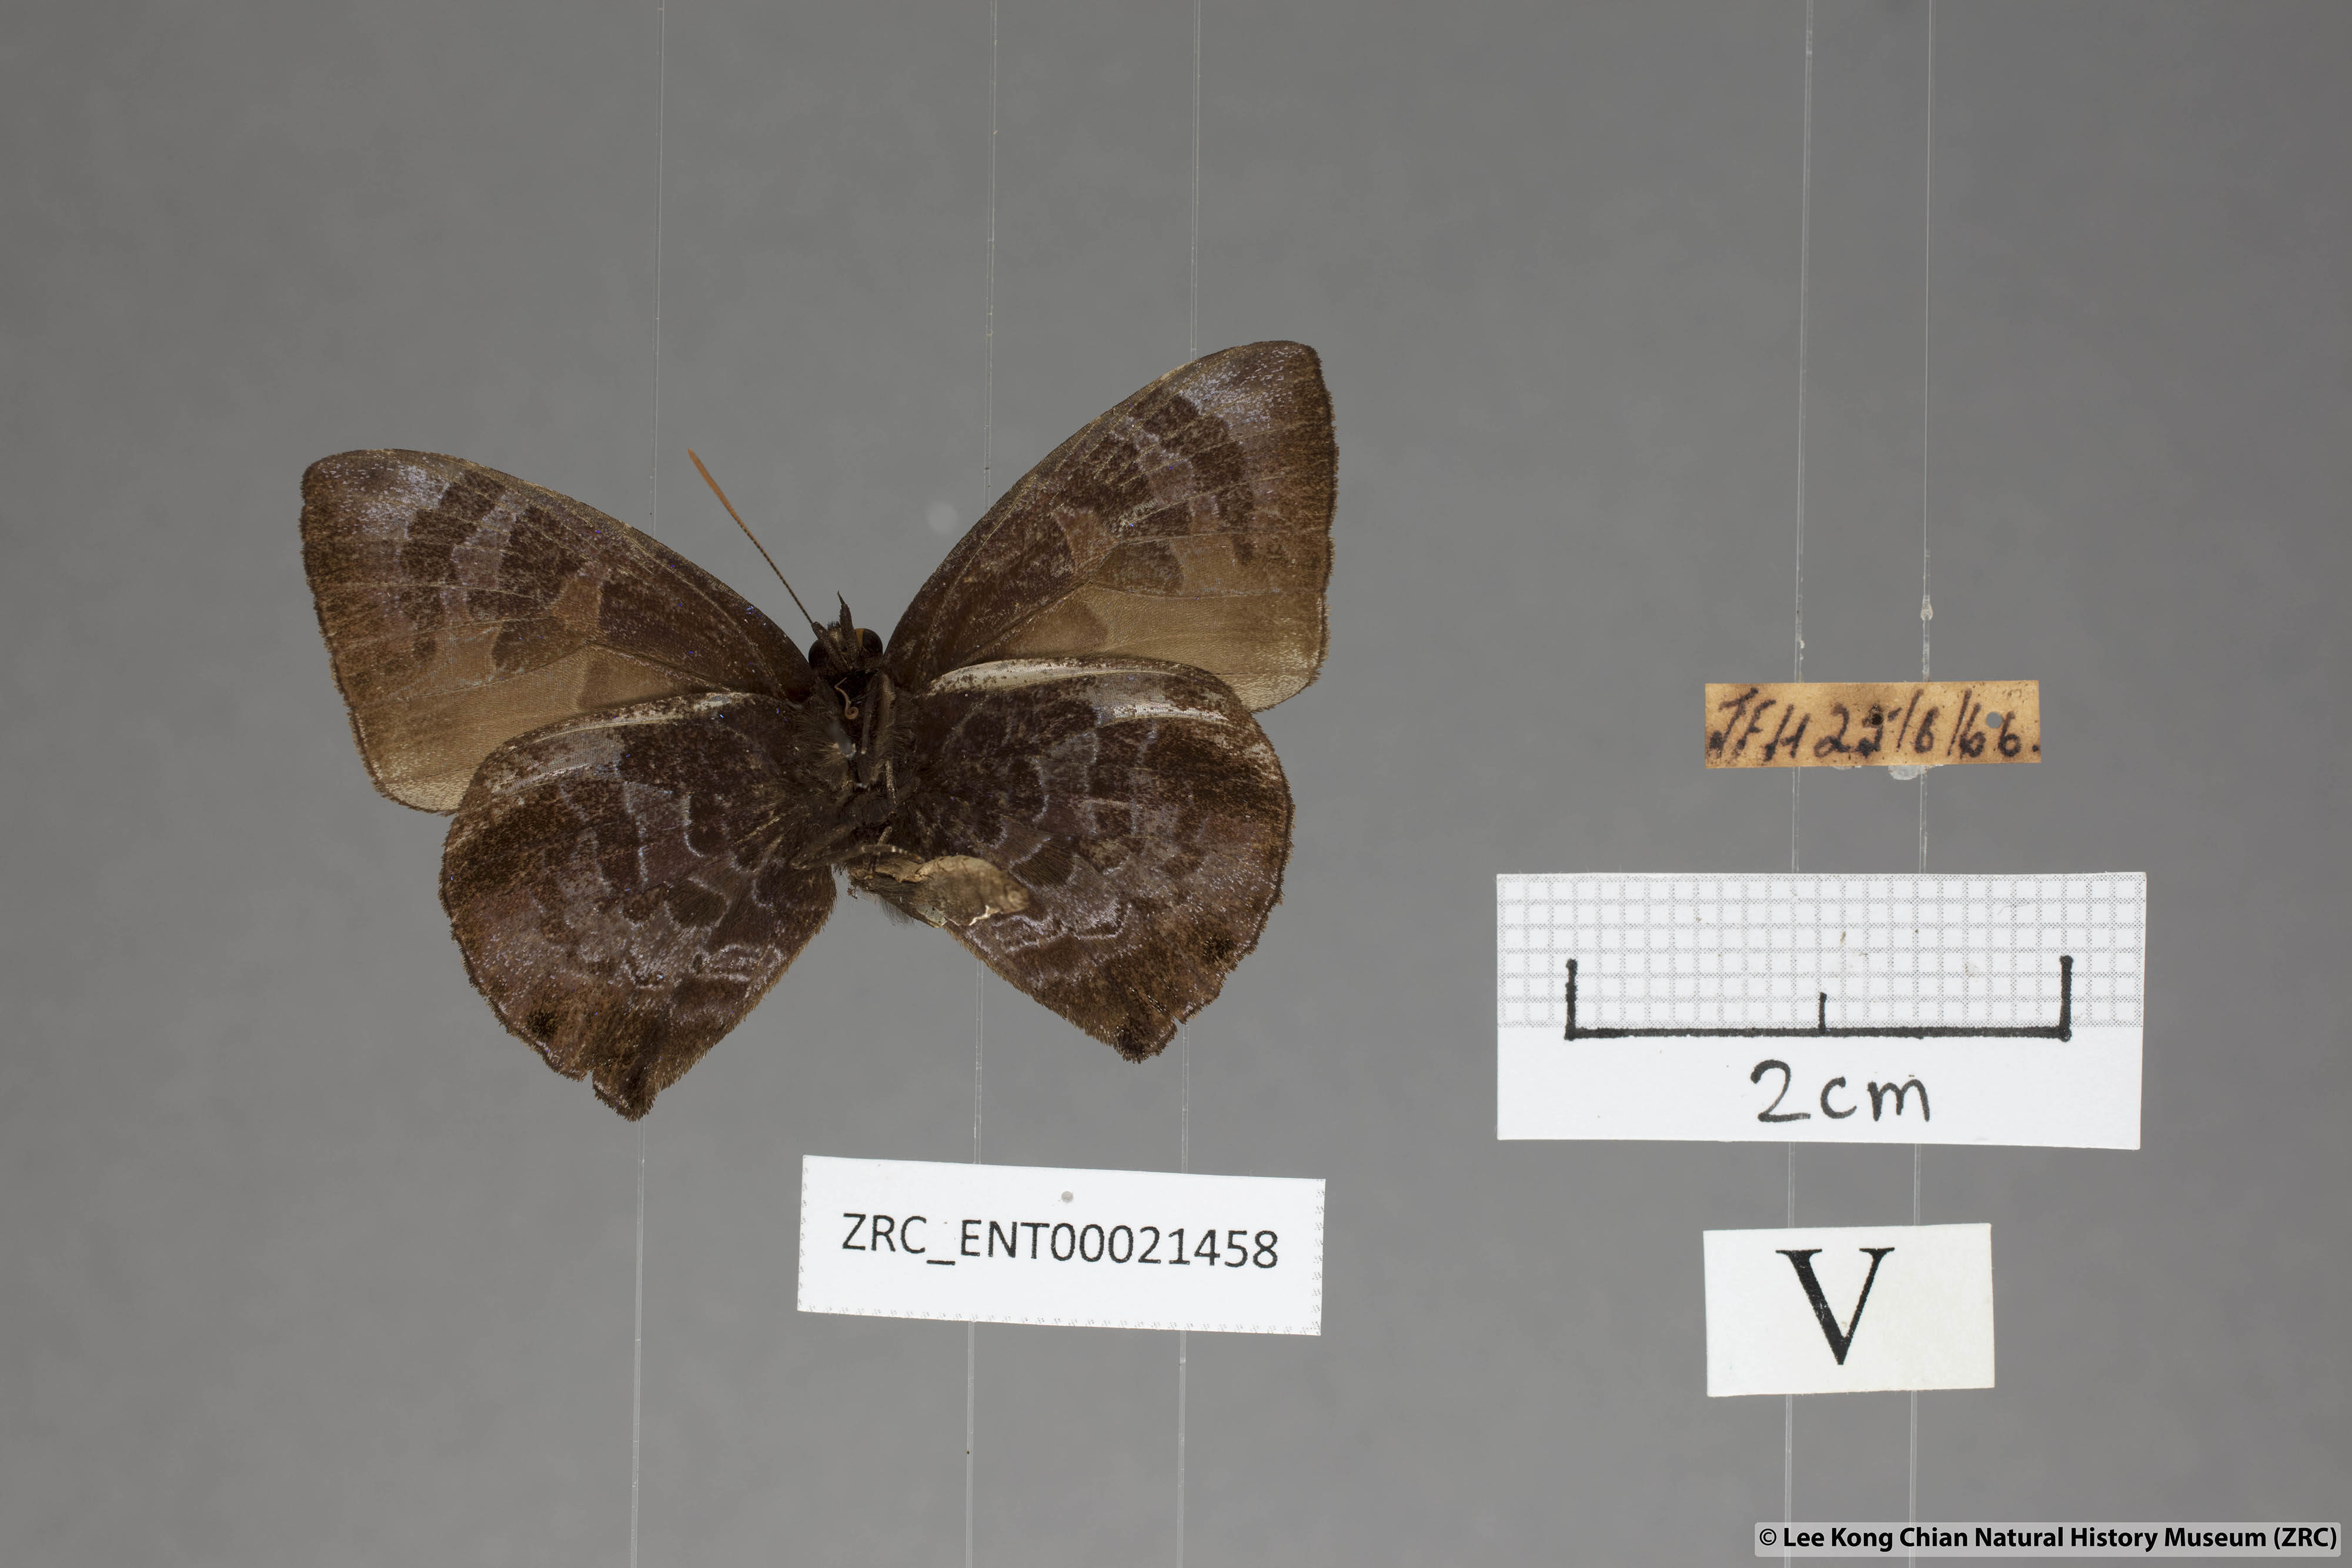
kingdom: Animalia
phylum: Arthropoda
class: Insecta
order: Lepidoptera
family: Lycaenidae
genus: Flos
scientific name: Flos
